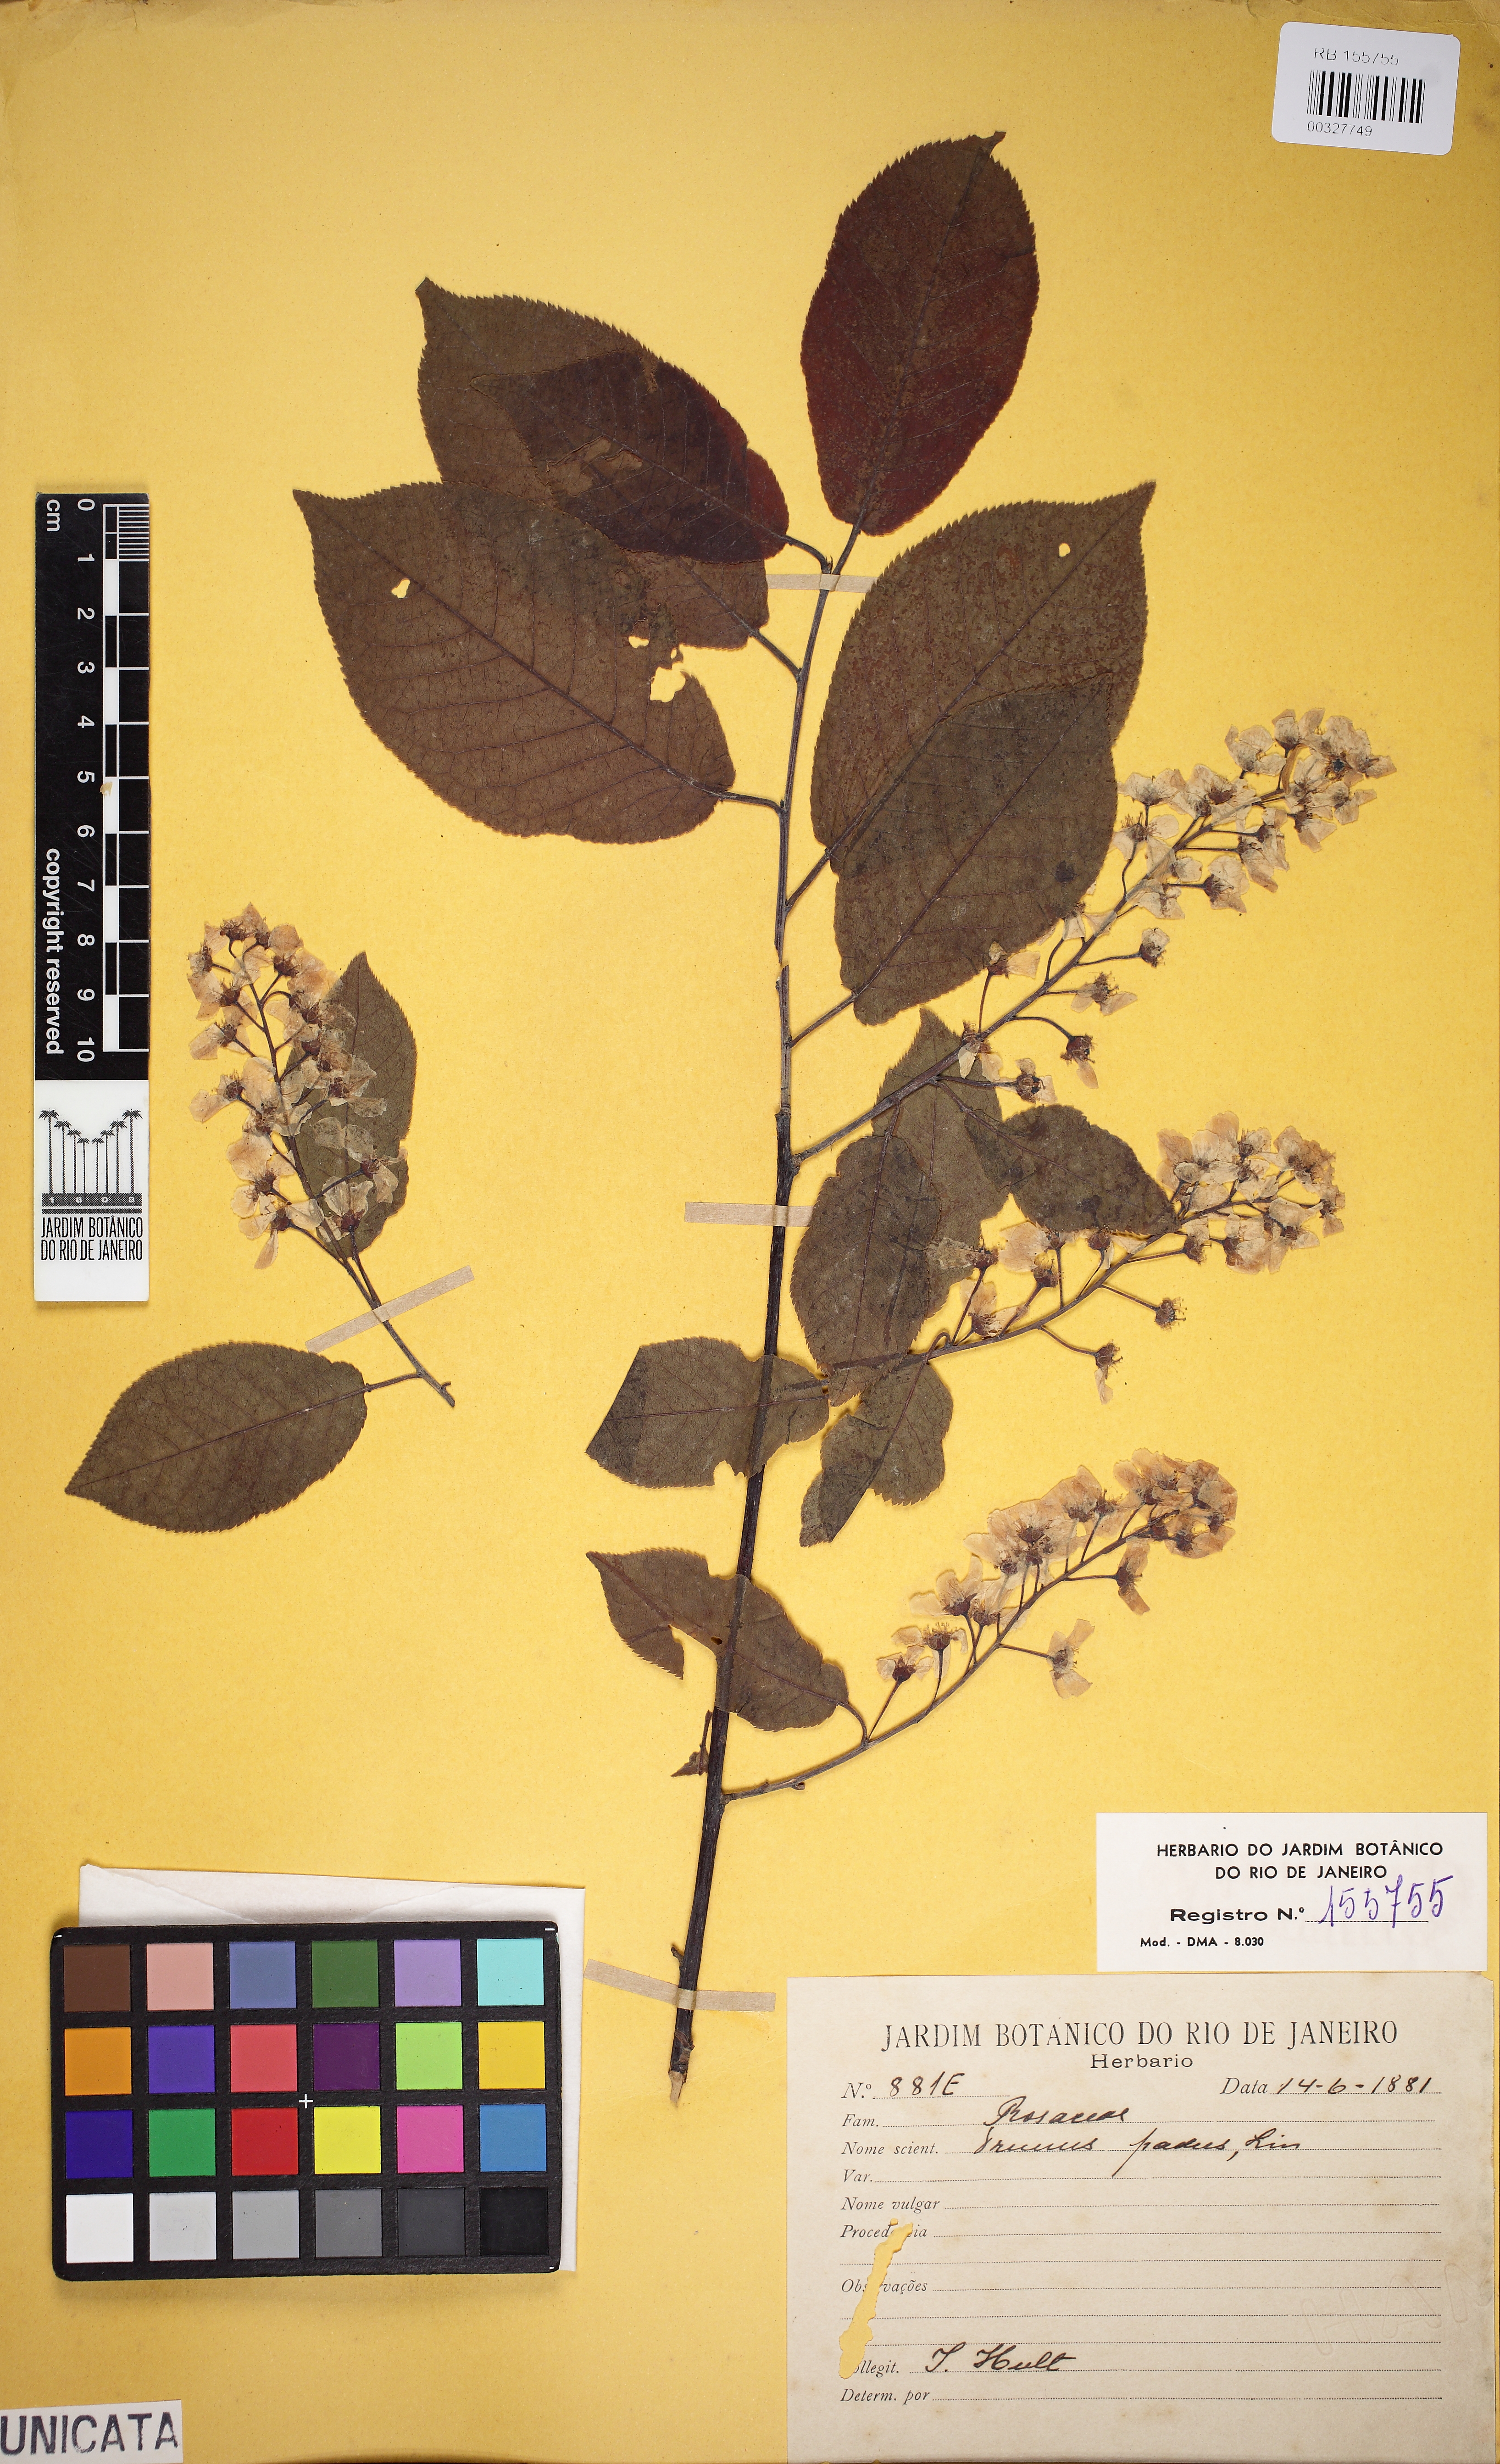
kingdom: Plantae
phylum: Tracheophyta
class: Magnoliopsida
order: Rosales
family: Rosaceae
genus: Prunus
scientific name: Prunus padus
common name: Bird cherry
